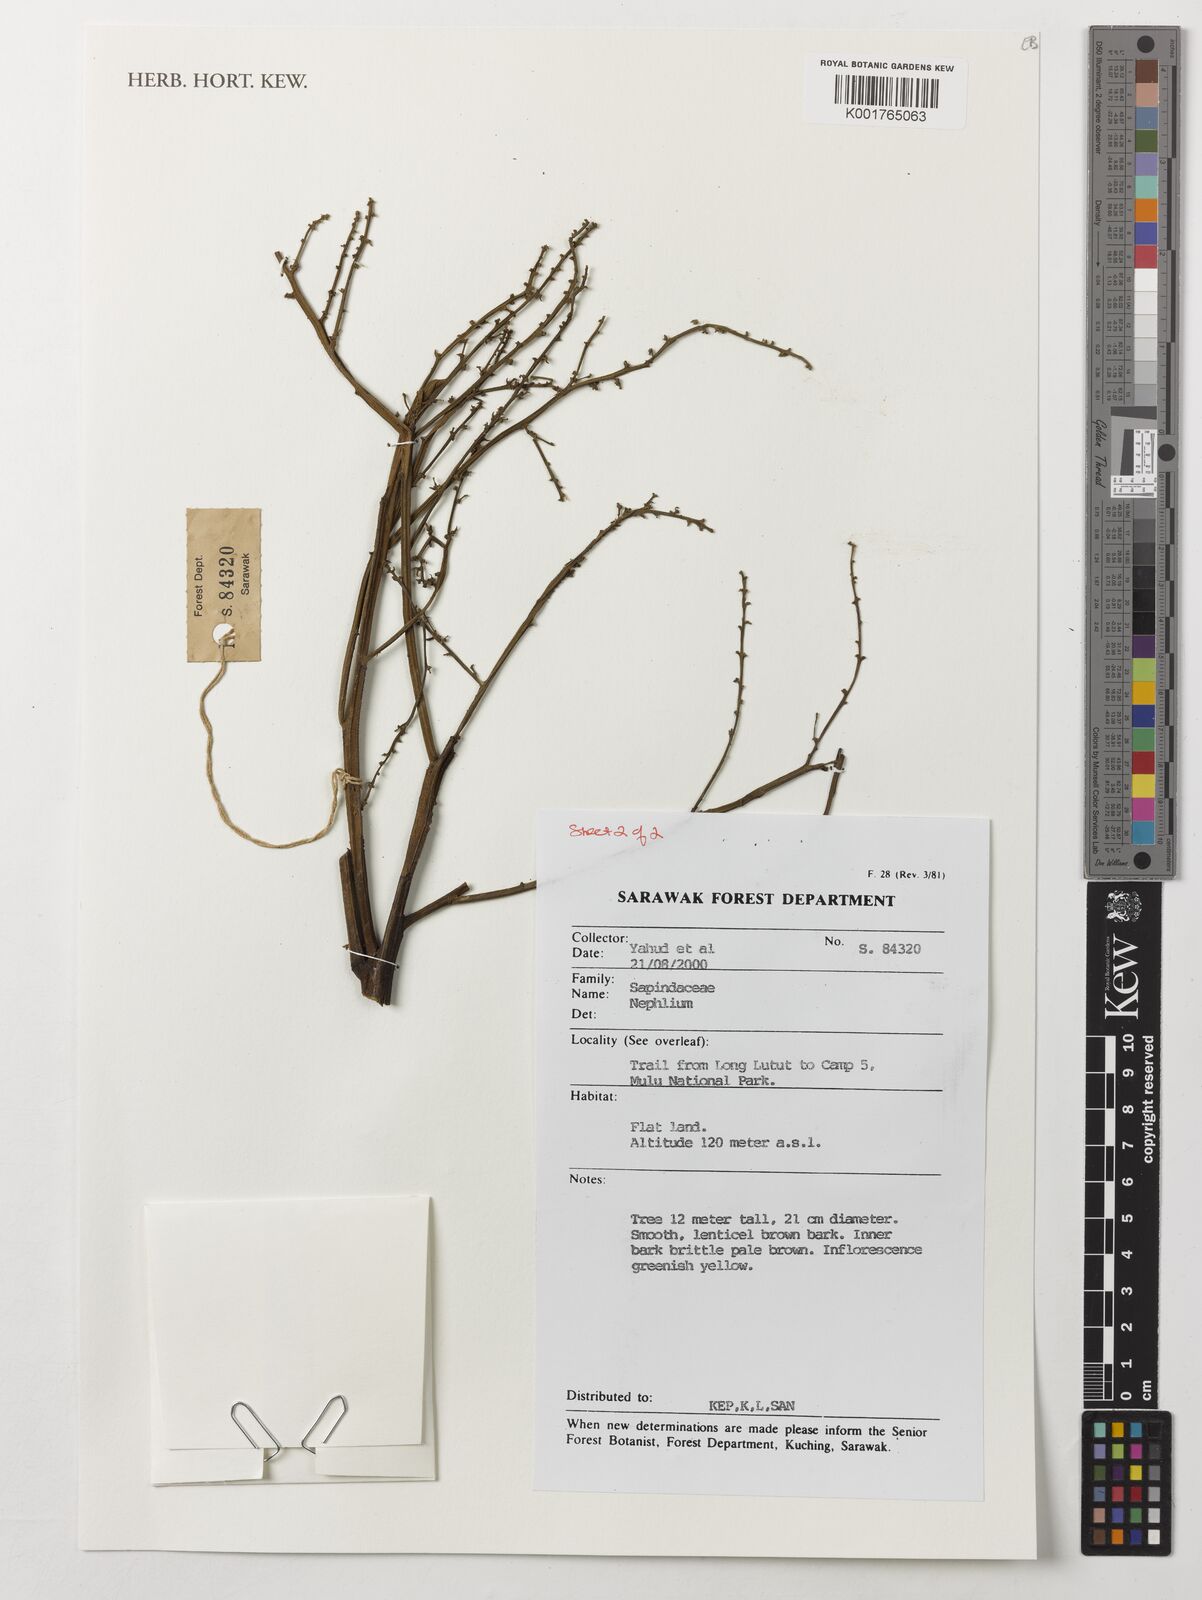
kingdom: Plantae
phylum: Tracheophyta
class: Magnoliopsida
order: Sapindales
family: Sapindaceae
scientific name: Sapindaceae
